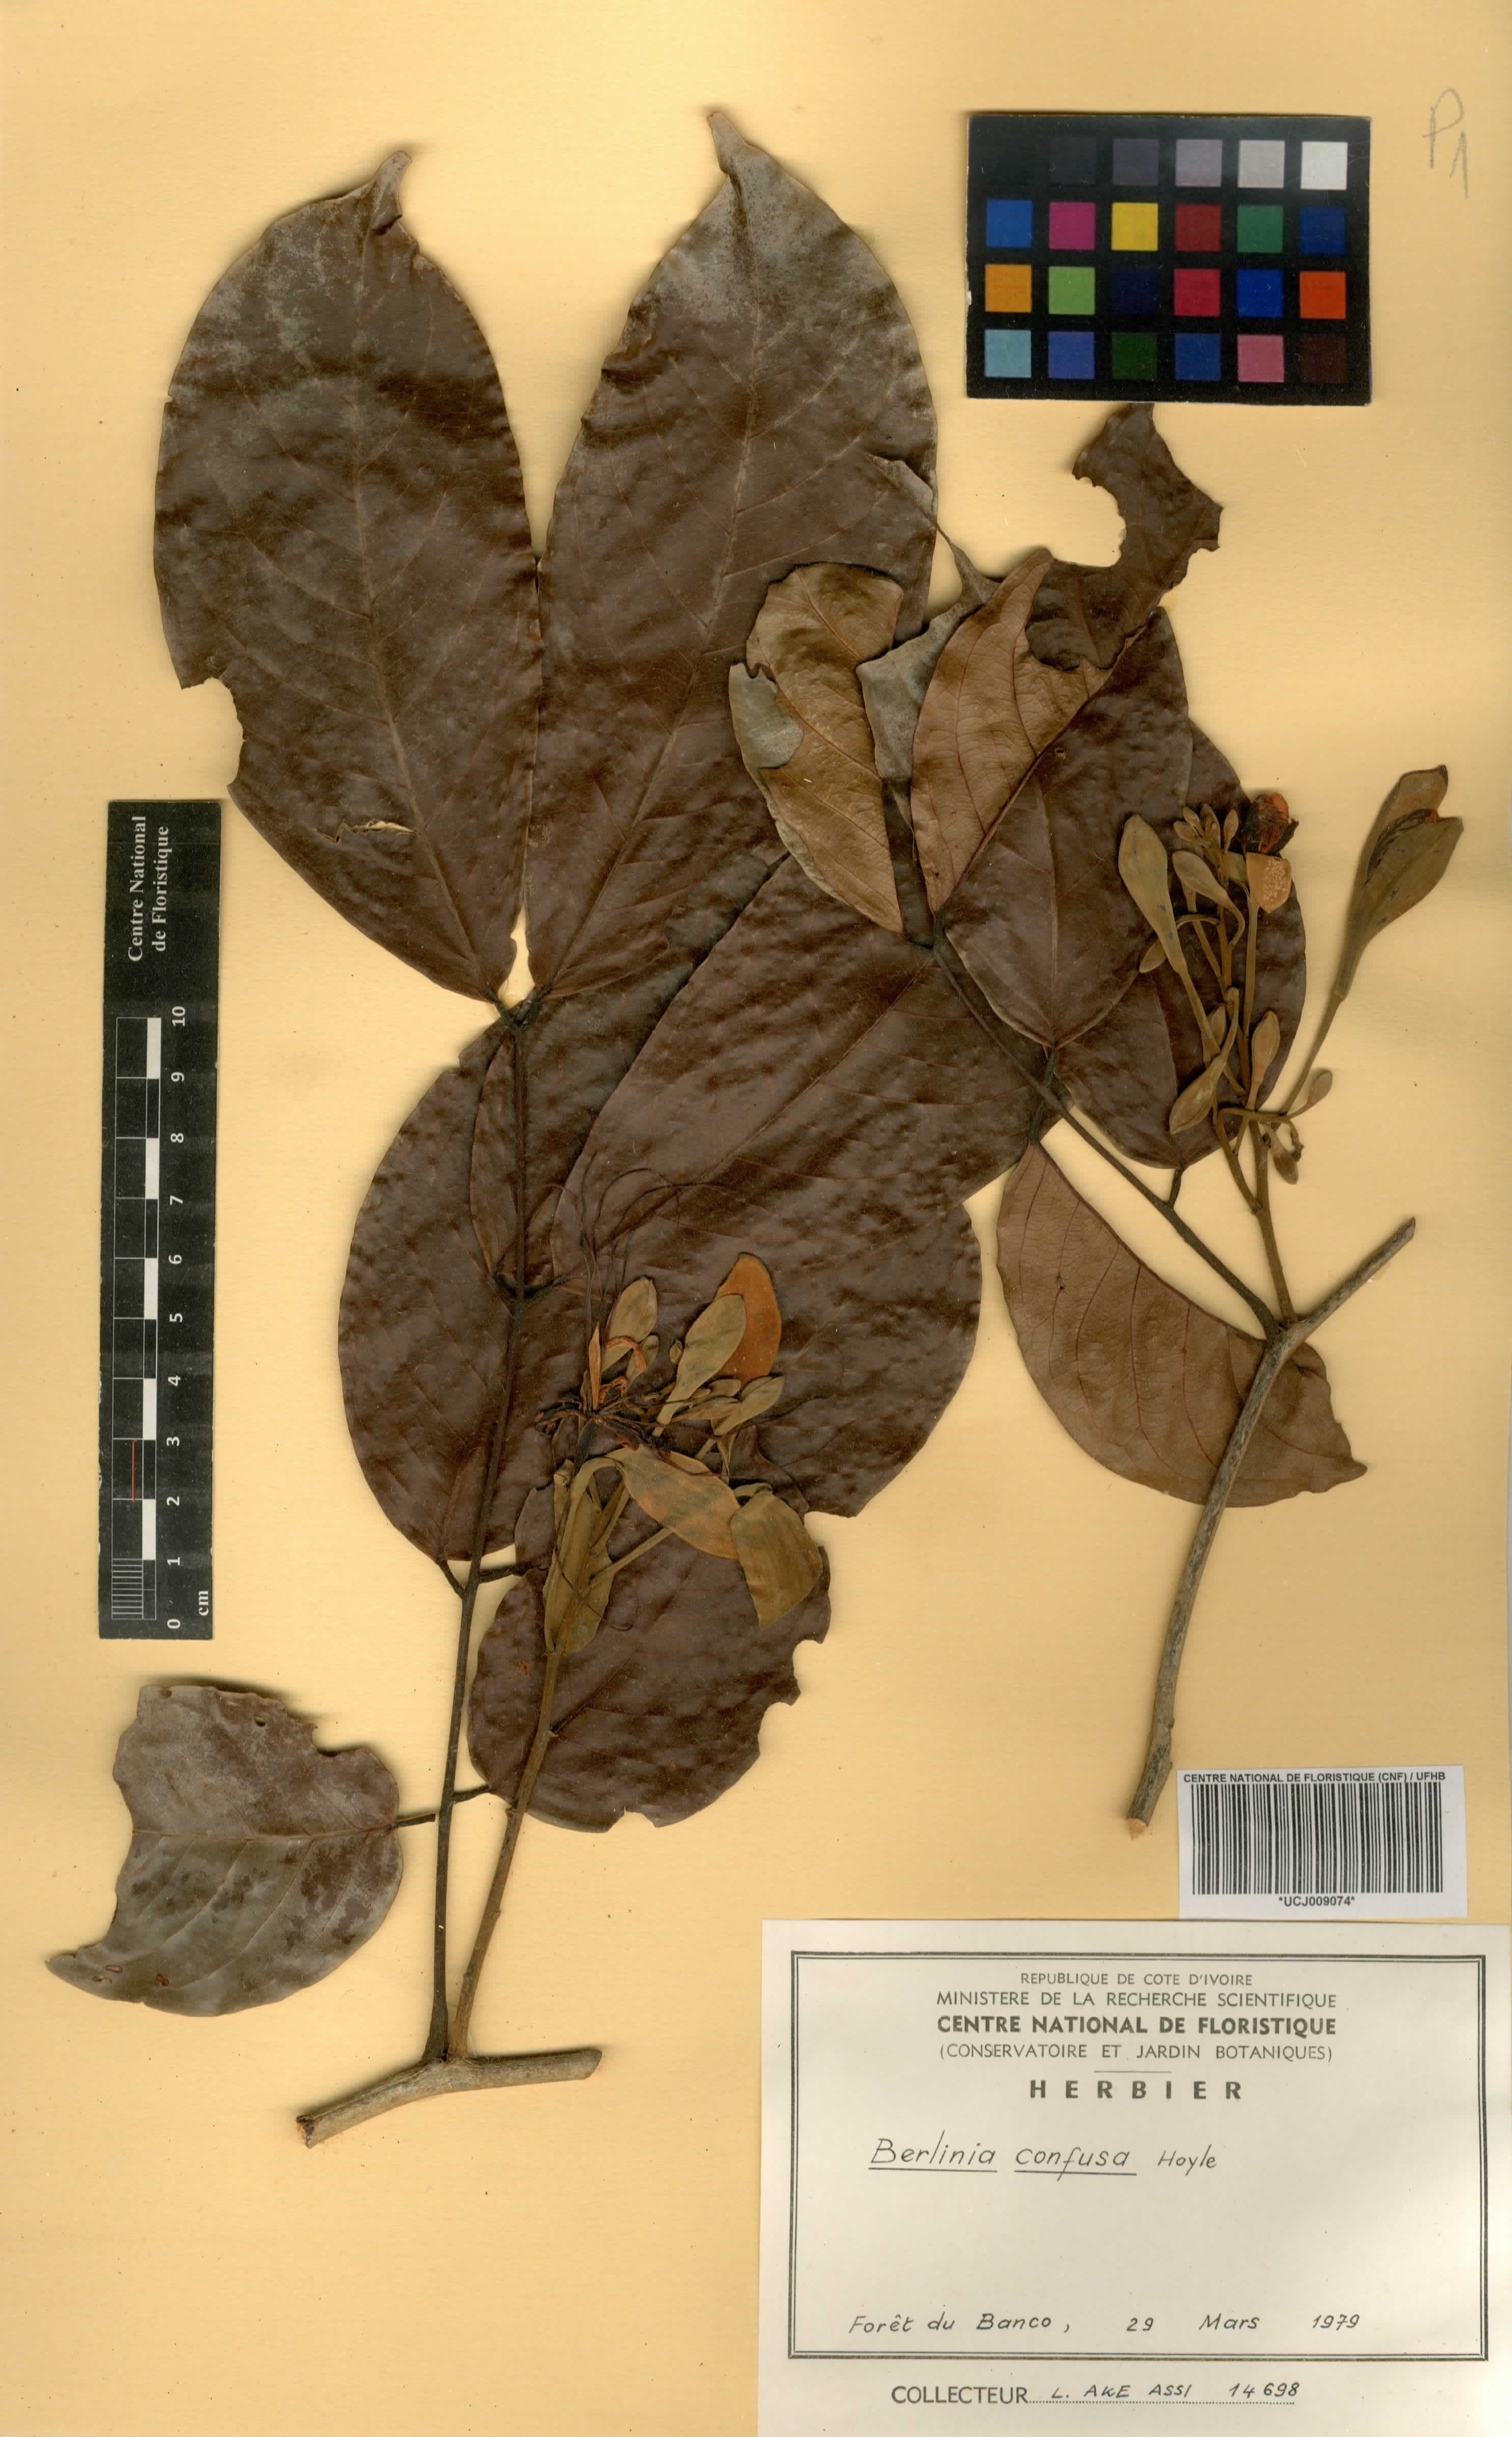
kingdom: Plantae
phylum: Tracheophyta
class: Magnoliopsida
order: Fabales
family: Fabaceae
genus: Berlinia
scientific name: Berlinia confusa
